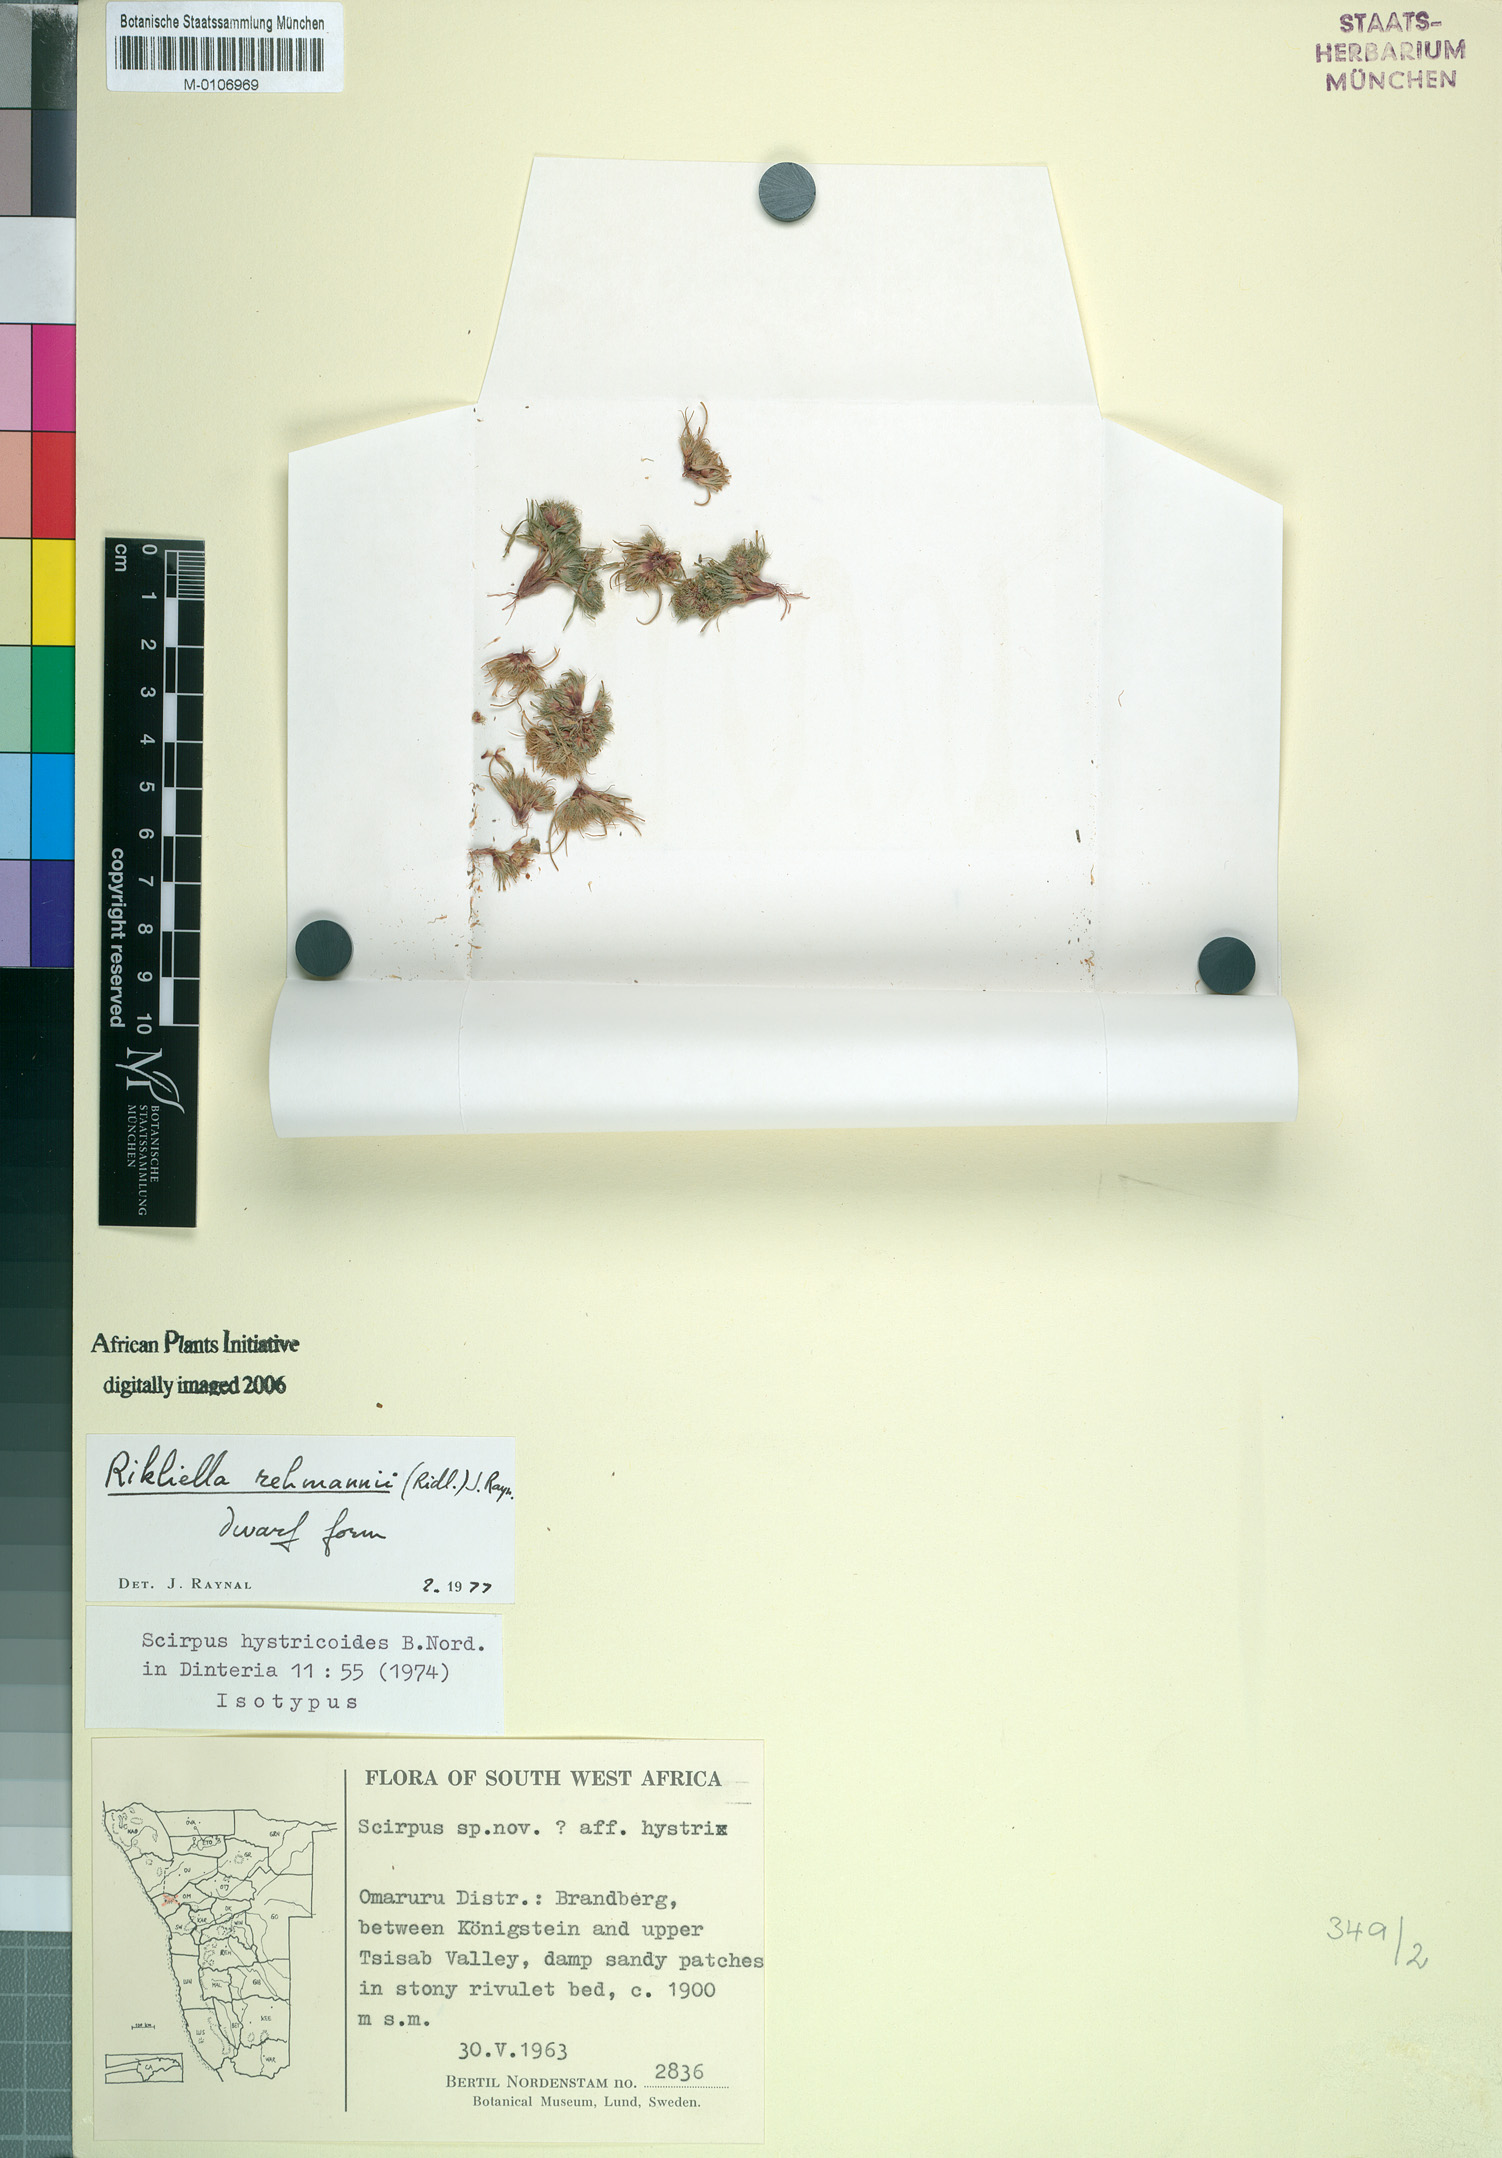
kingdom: Plantae
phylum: Tracheophyta
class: Liliopsida
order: Poales
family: Cyperaceae
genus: Cyperus
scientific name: Cyperus hystricoides
